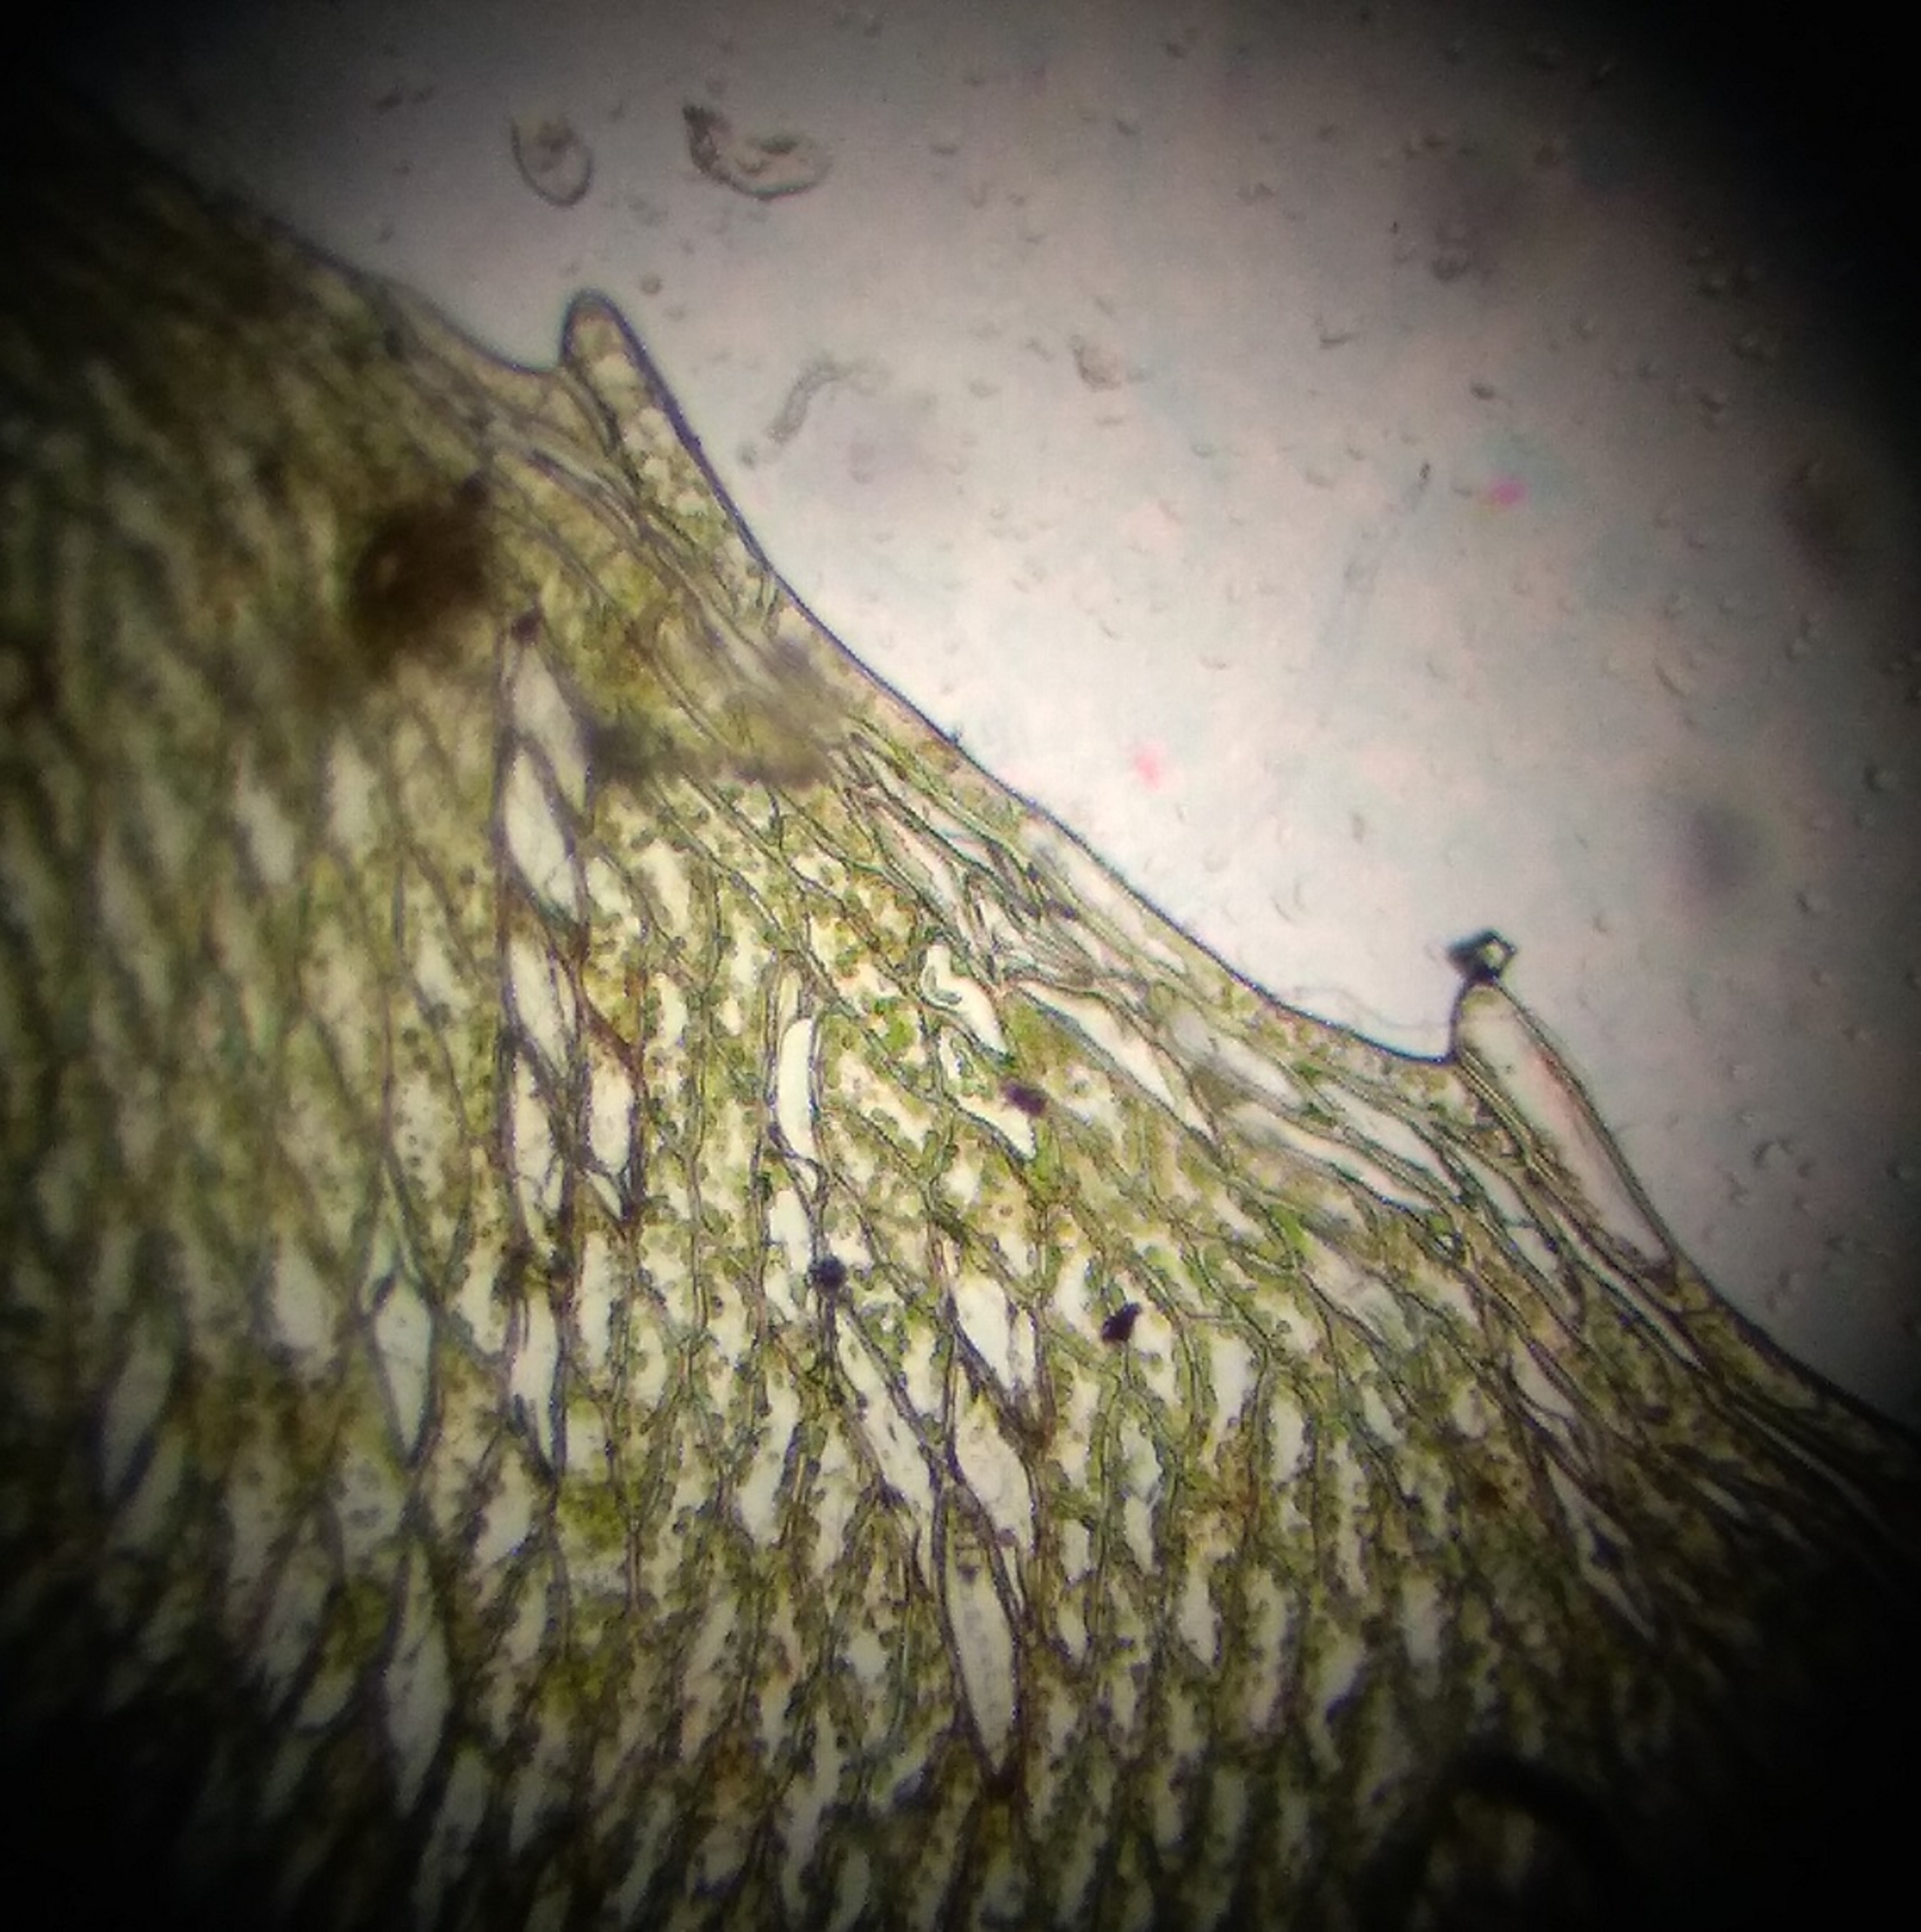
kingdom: Plantae
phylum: Bryophyta
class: Bryopsida
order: Bryales
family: Mniaceae
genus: Pseudobryum
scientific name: Pseudobryum cinclidioides
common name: Sortstænglet sumpmos
